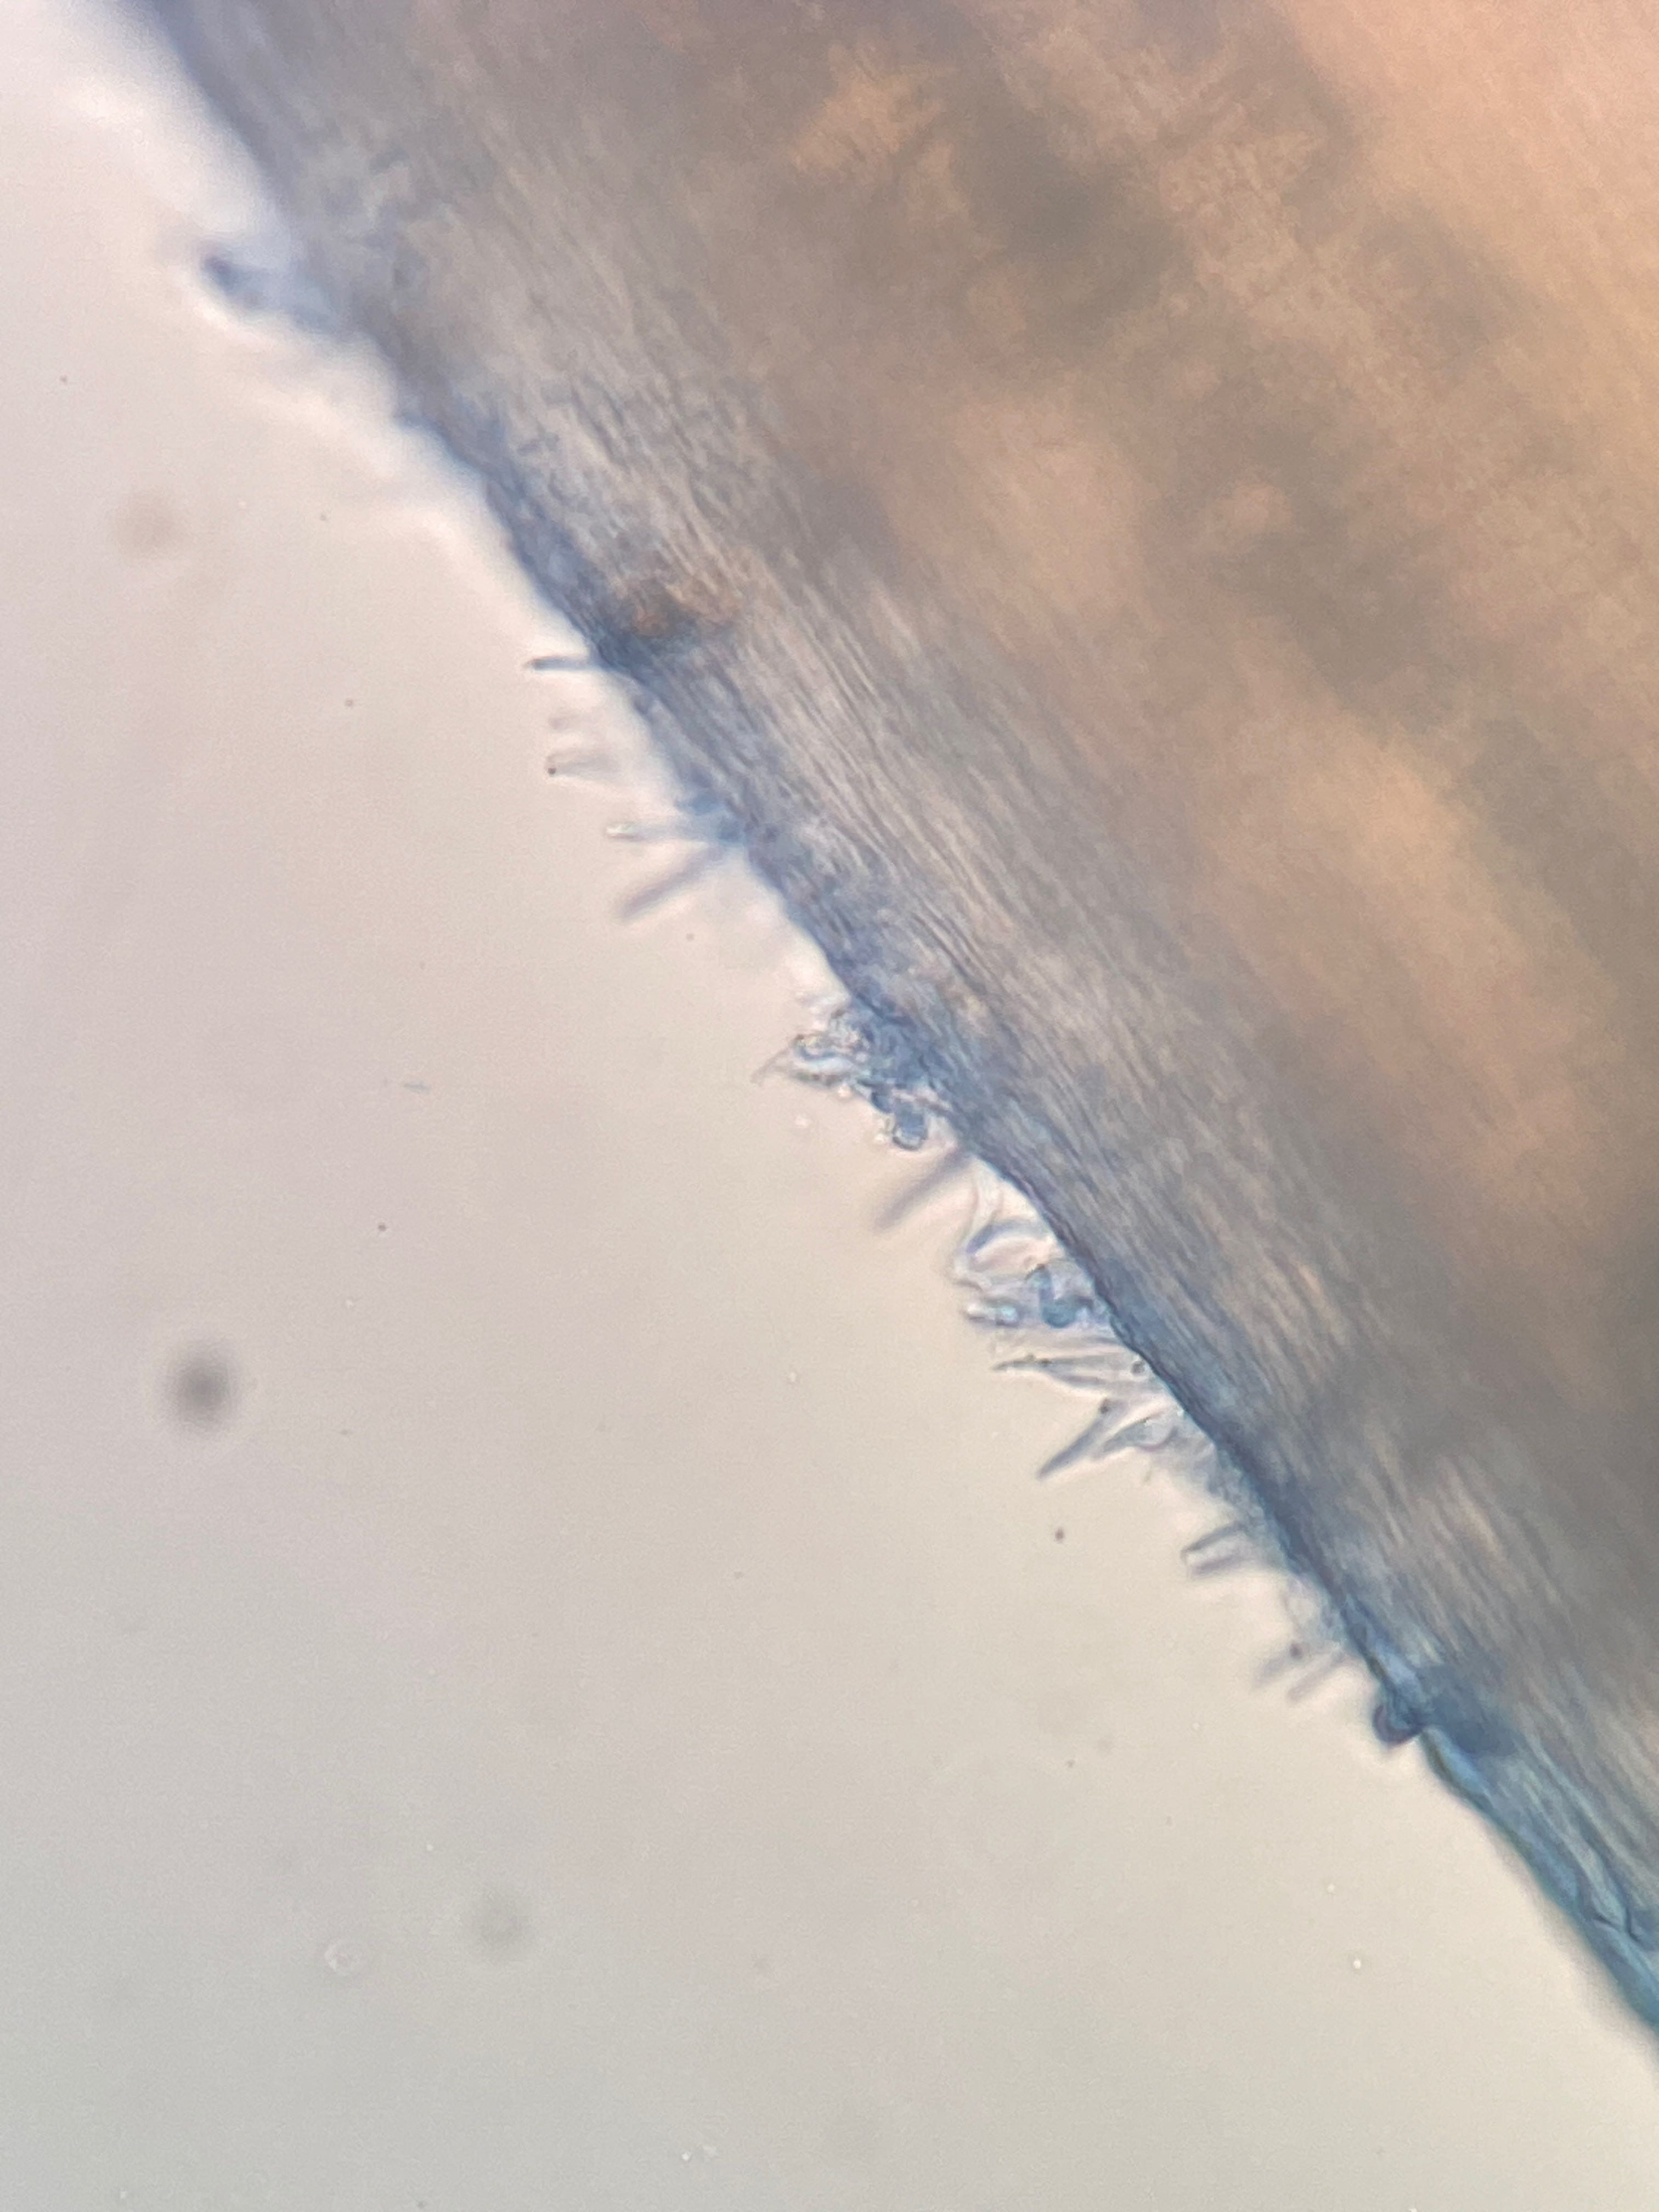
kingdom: Fungi
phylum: Basidiomycota
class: Agaricomycetes
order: Agaricales
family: Mycenaceae
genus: Hemimycena
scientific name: Hemimycena cucullata
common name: tætbladet huesvamp
